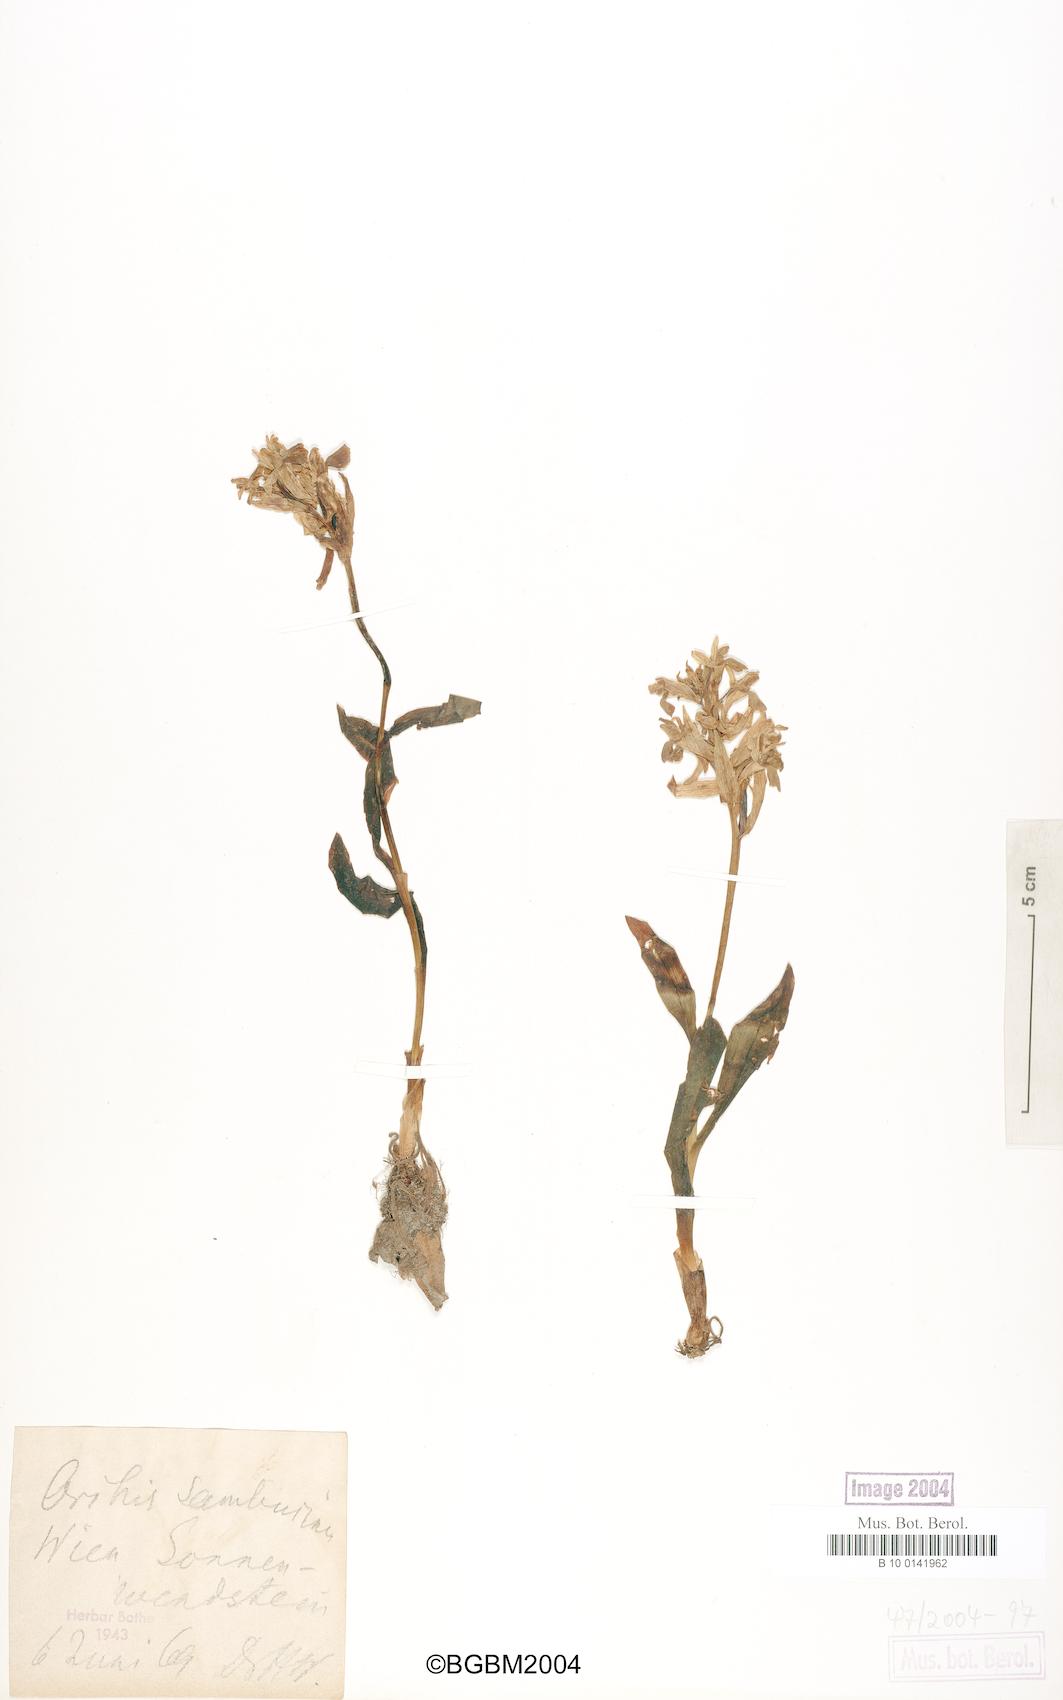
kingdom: Plantae
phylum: Tracheophyta
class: Liliopsida
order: Asparagales
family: Orchidaceae
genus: Dactylorhiza
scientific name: Dactylorhiza sambucina
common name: Elder-flowered orchid
